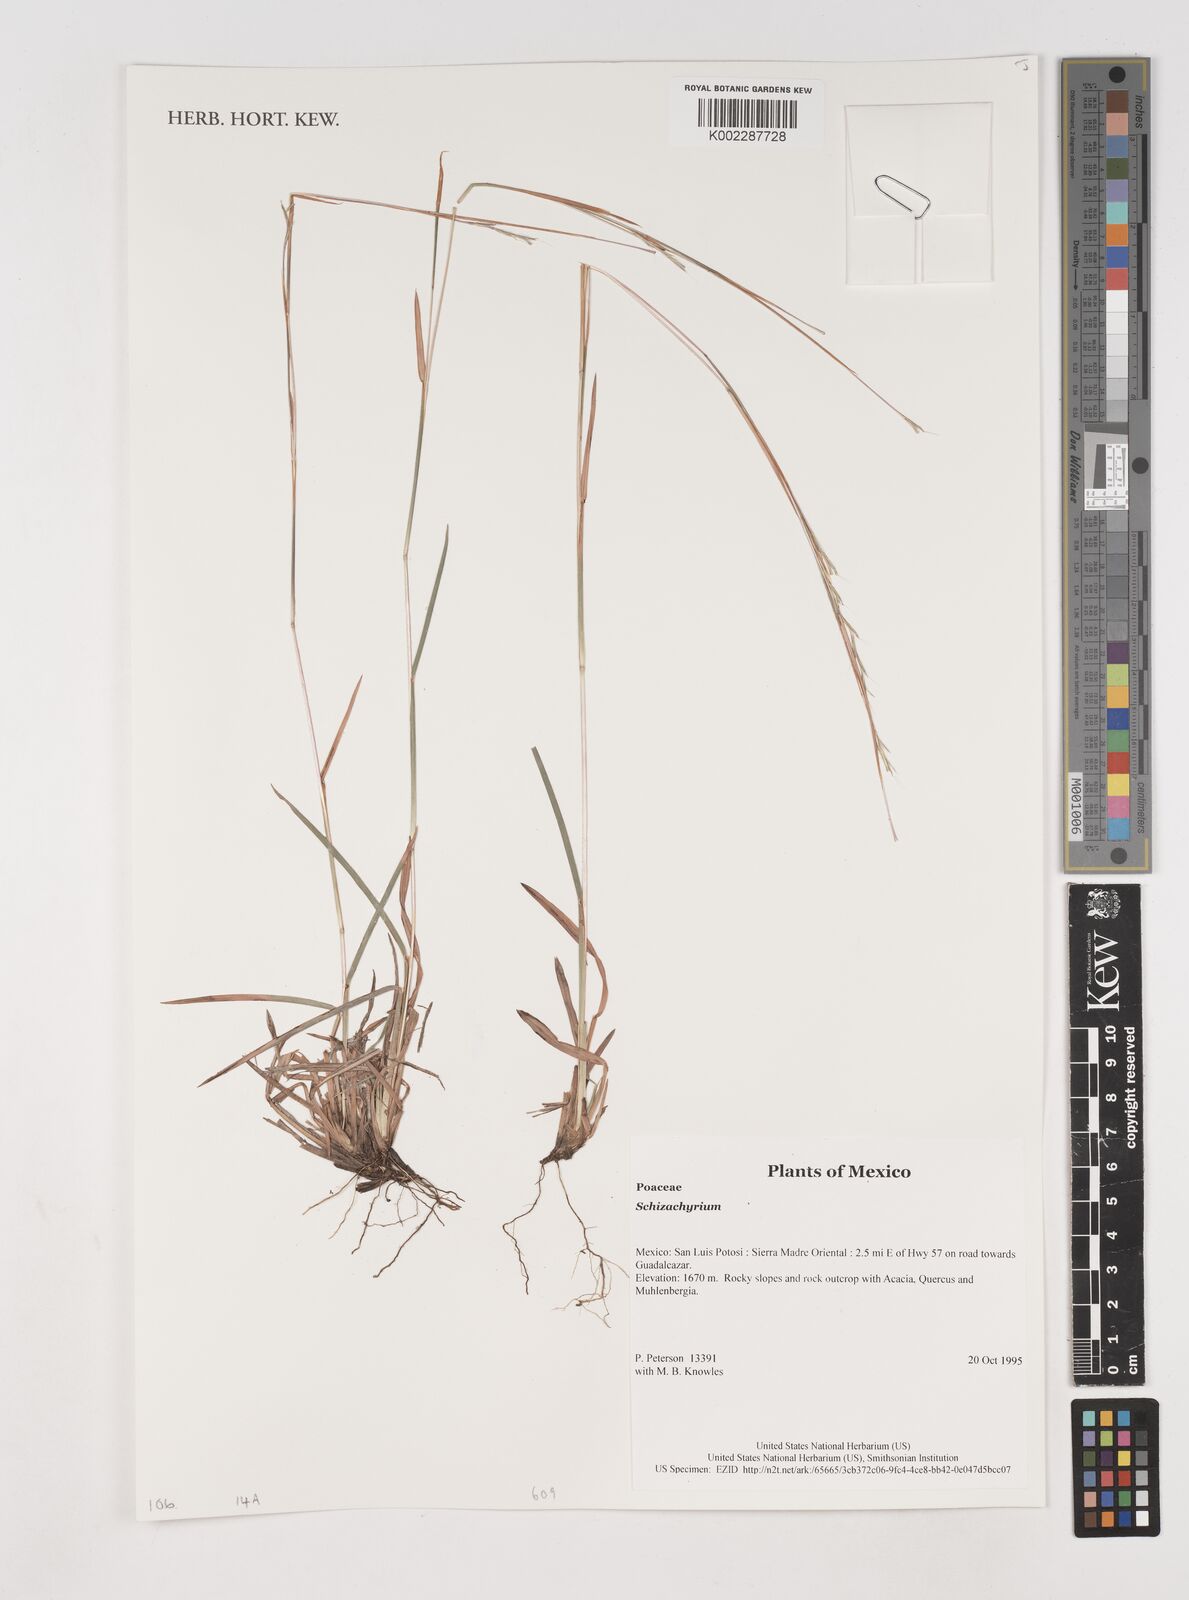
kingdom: Plantae
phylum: Tracheophyta
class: Liliopsida
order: Poales
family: Poaceae
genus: Schizachyrium
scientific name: Schizachyrium
